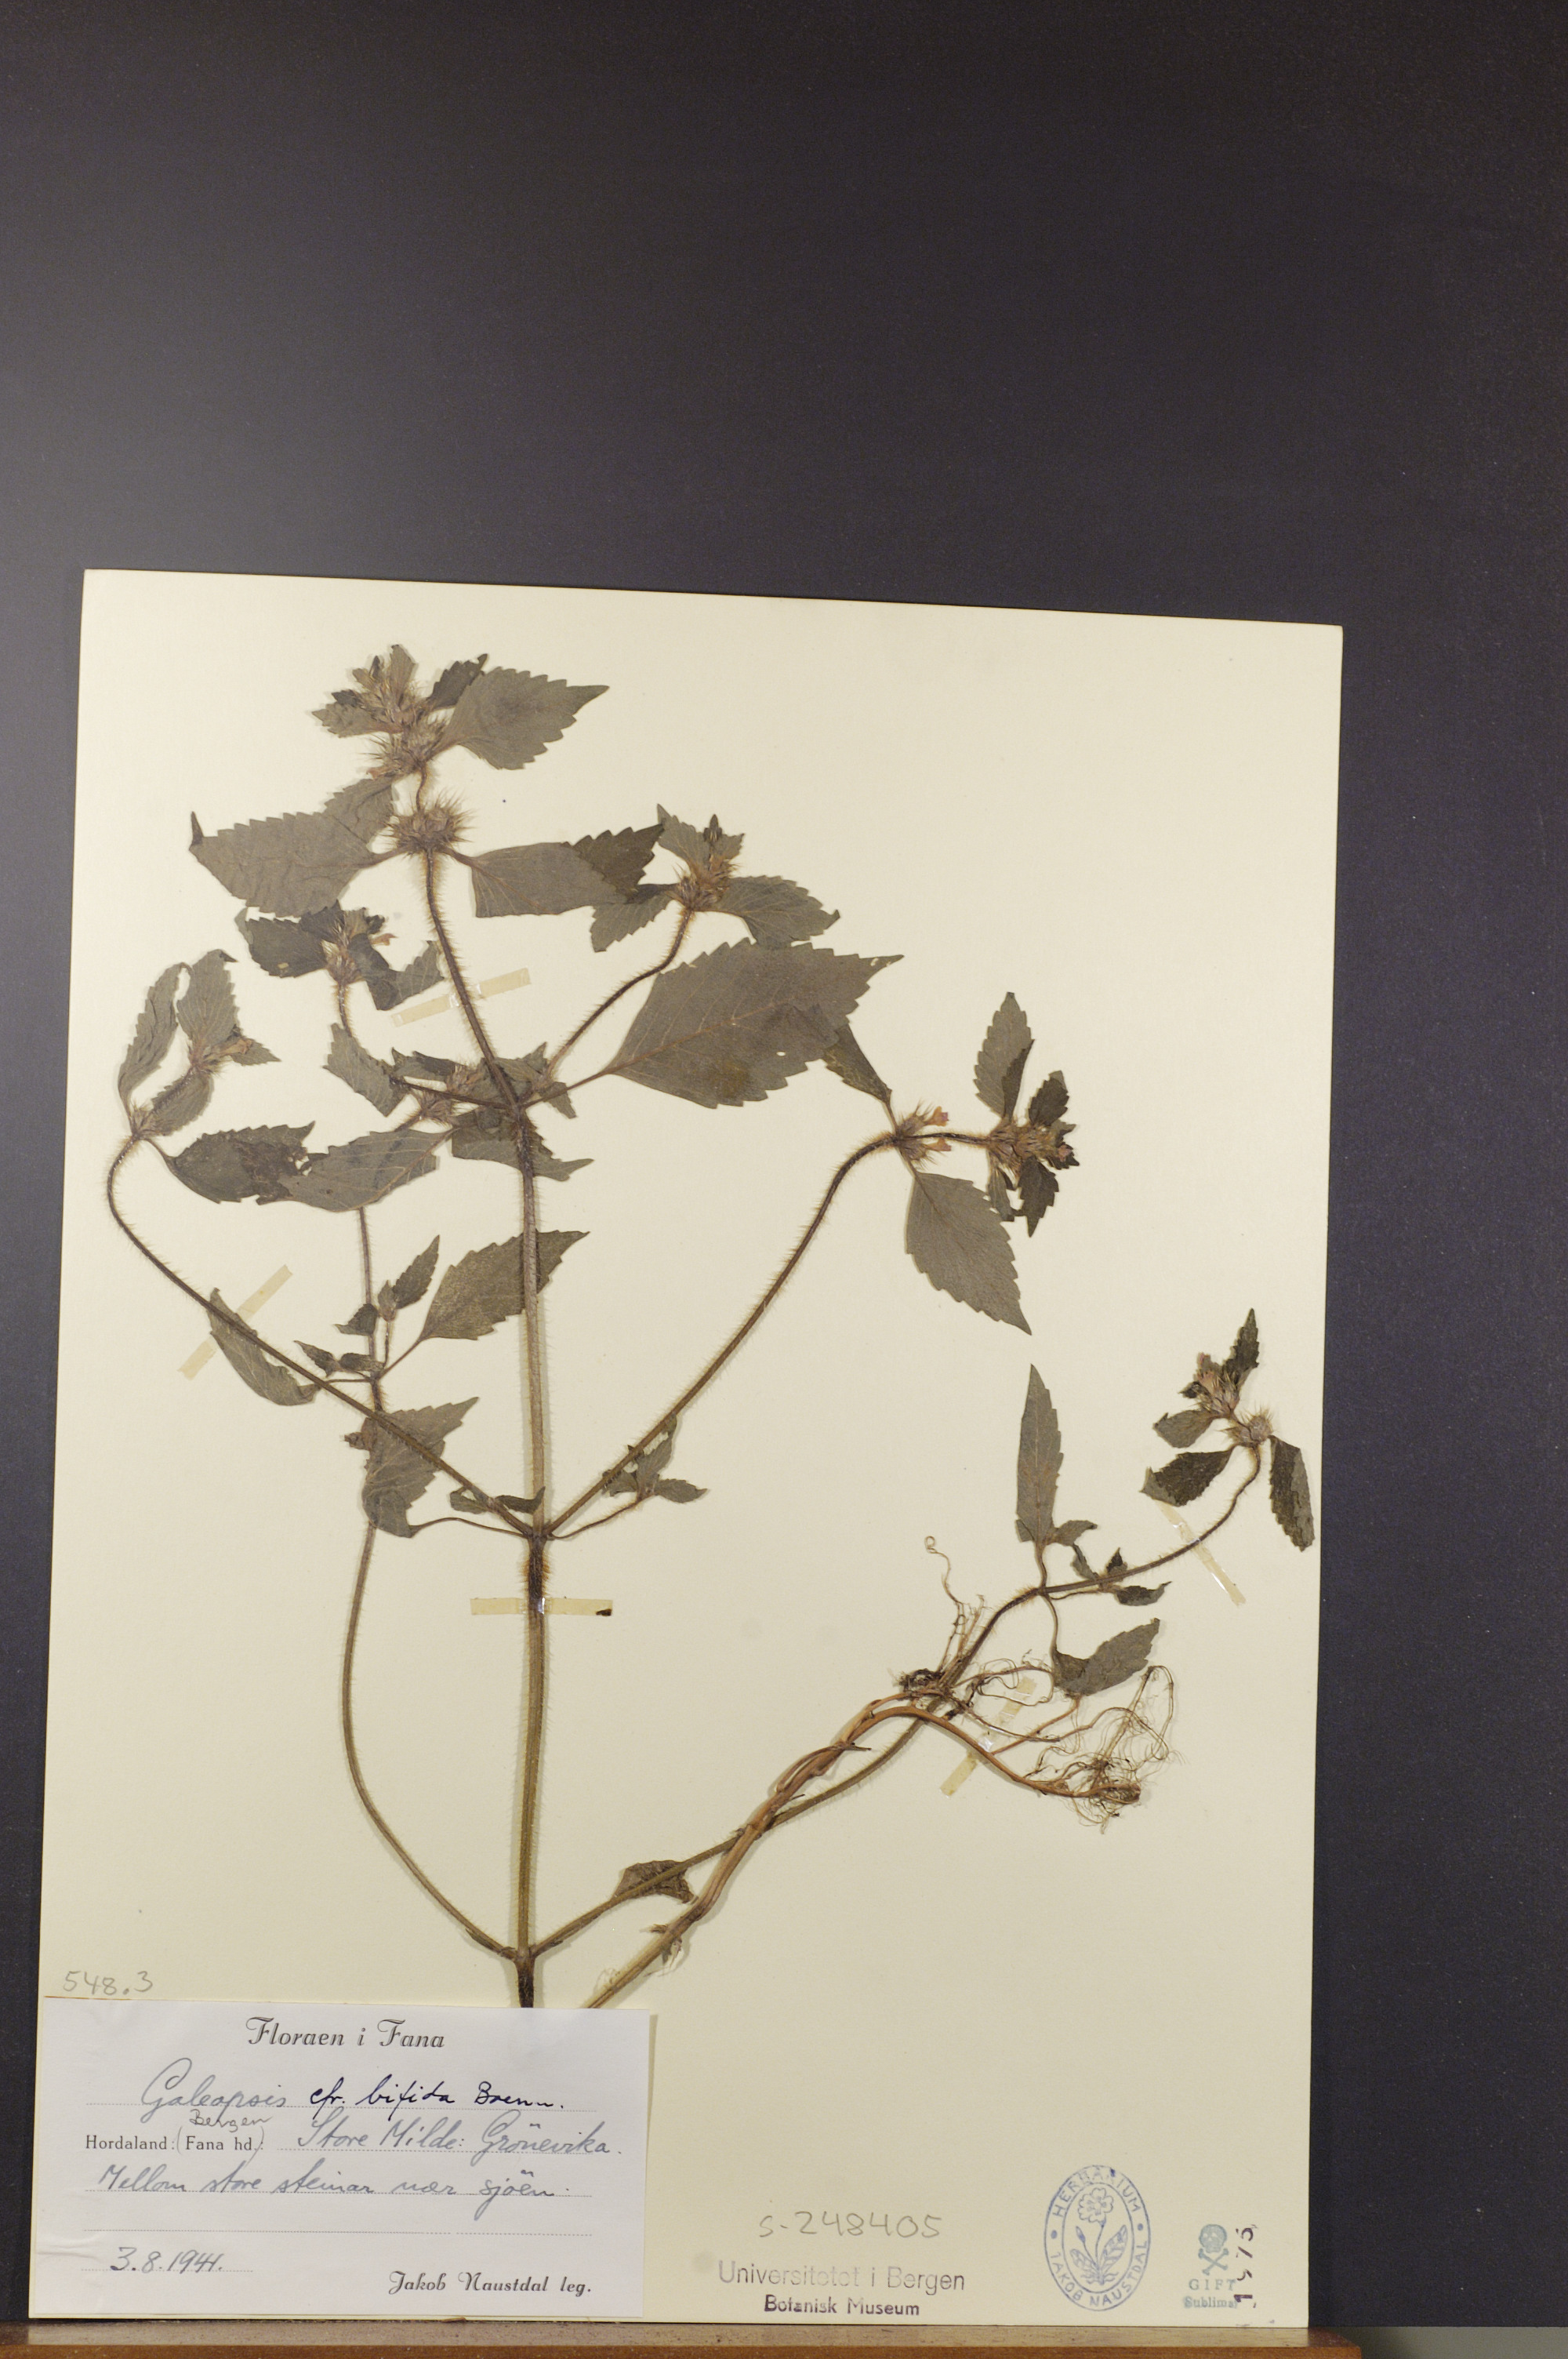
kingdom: Plantae
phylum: Tracheophyta
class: Magnoliopsida
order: Lamiales
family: Lamiaceae
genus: Galeopsis
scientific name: Galeopsis bifida
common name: Bifid hemp-nettle
